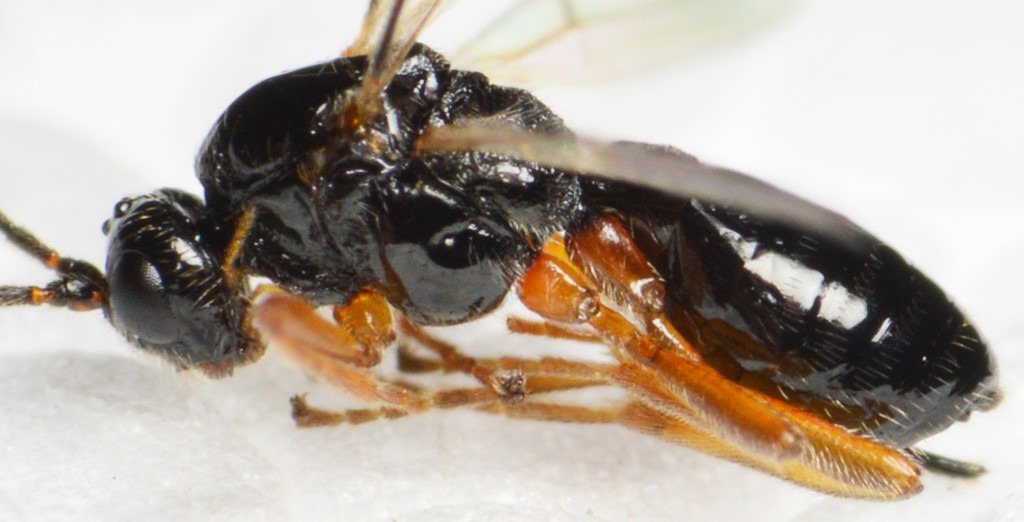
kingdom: Animalia
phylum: Arthropoda
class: Insecta
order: Hymenoptera
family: Braconidae
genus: Biosteres
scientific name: Biosteres carbonarius
